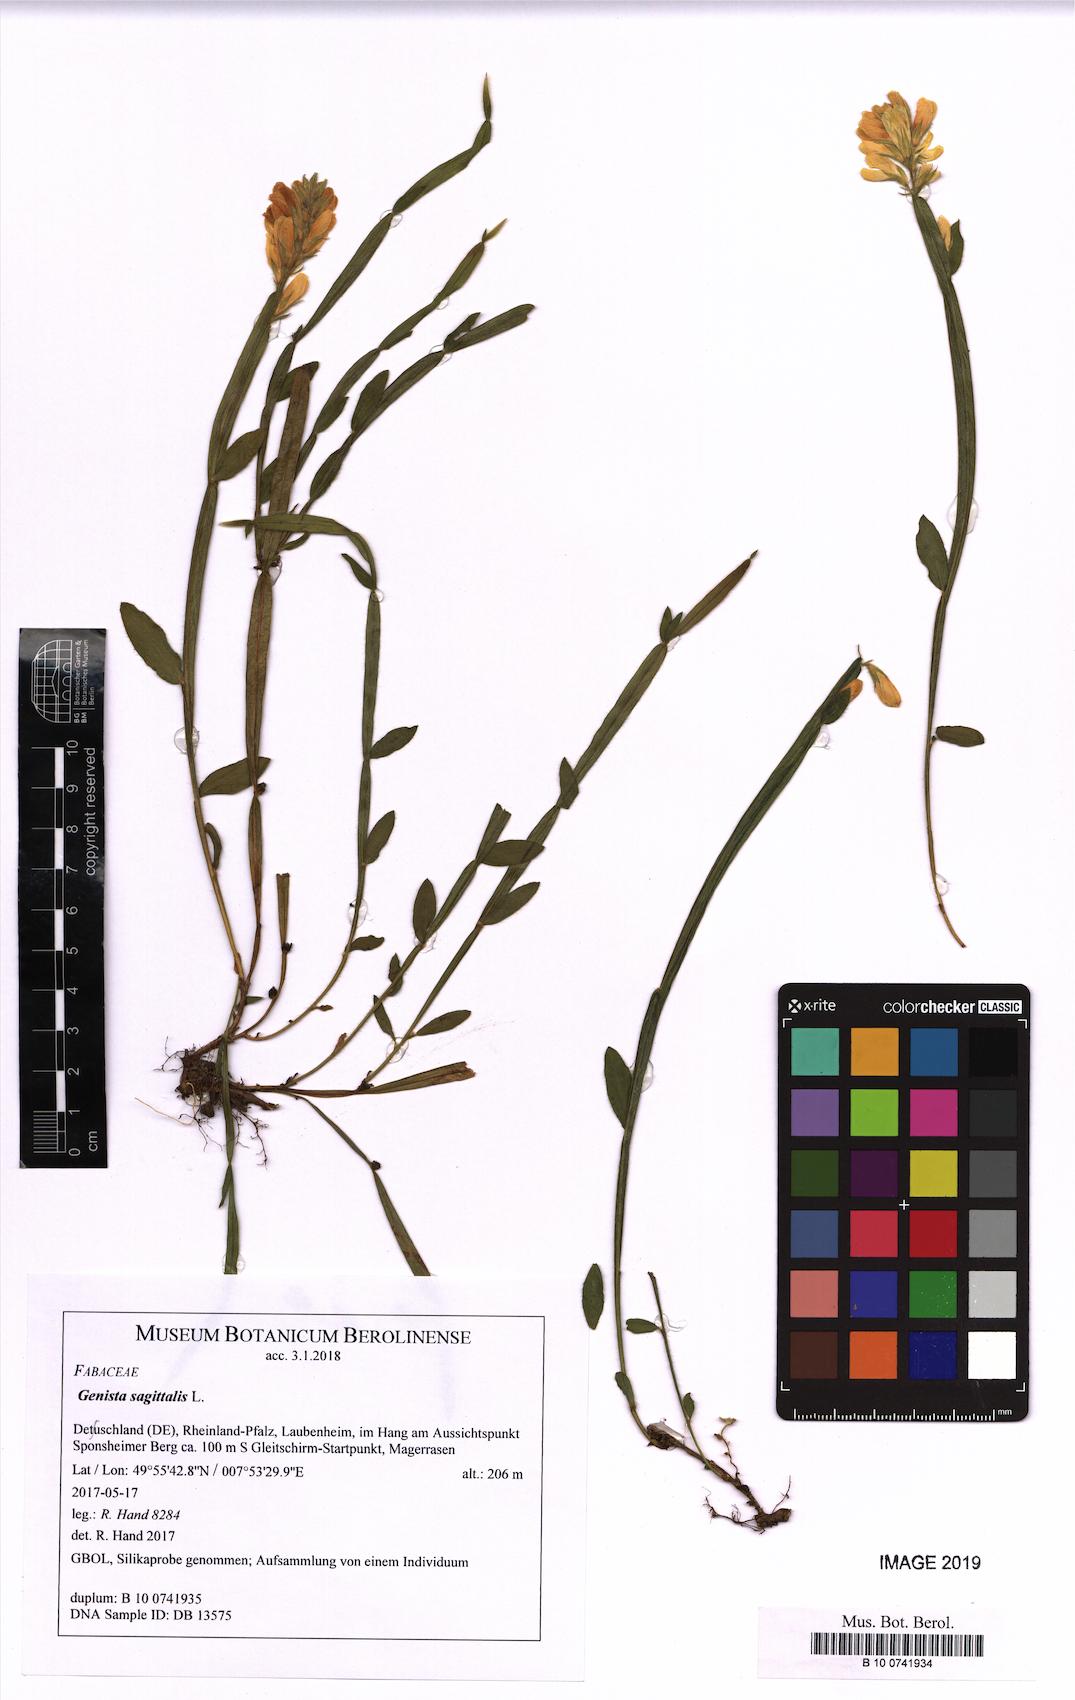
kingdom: Plantae
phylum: Tracheophyta
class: Magnoliopsida
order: Fabales
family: Fabaceae
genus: Genista
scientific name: Genista sagittalis
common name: Winged greenweed
